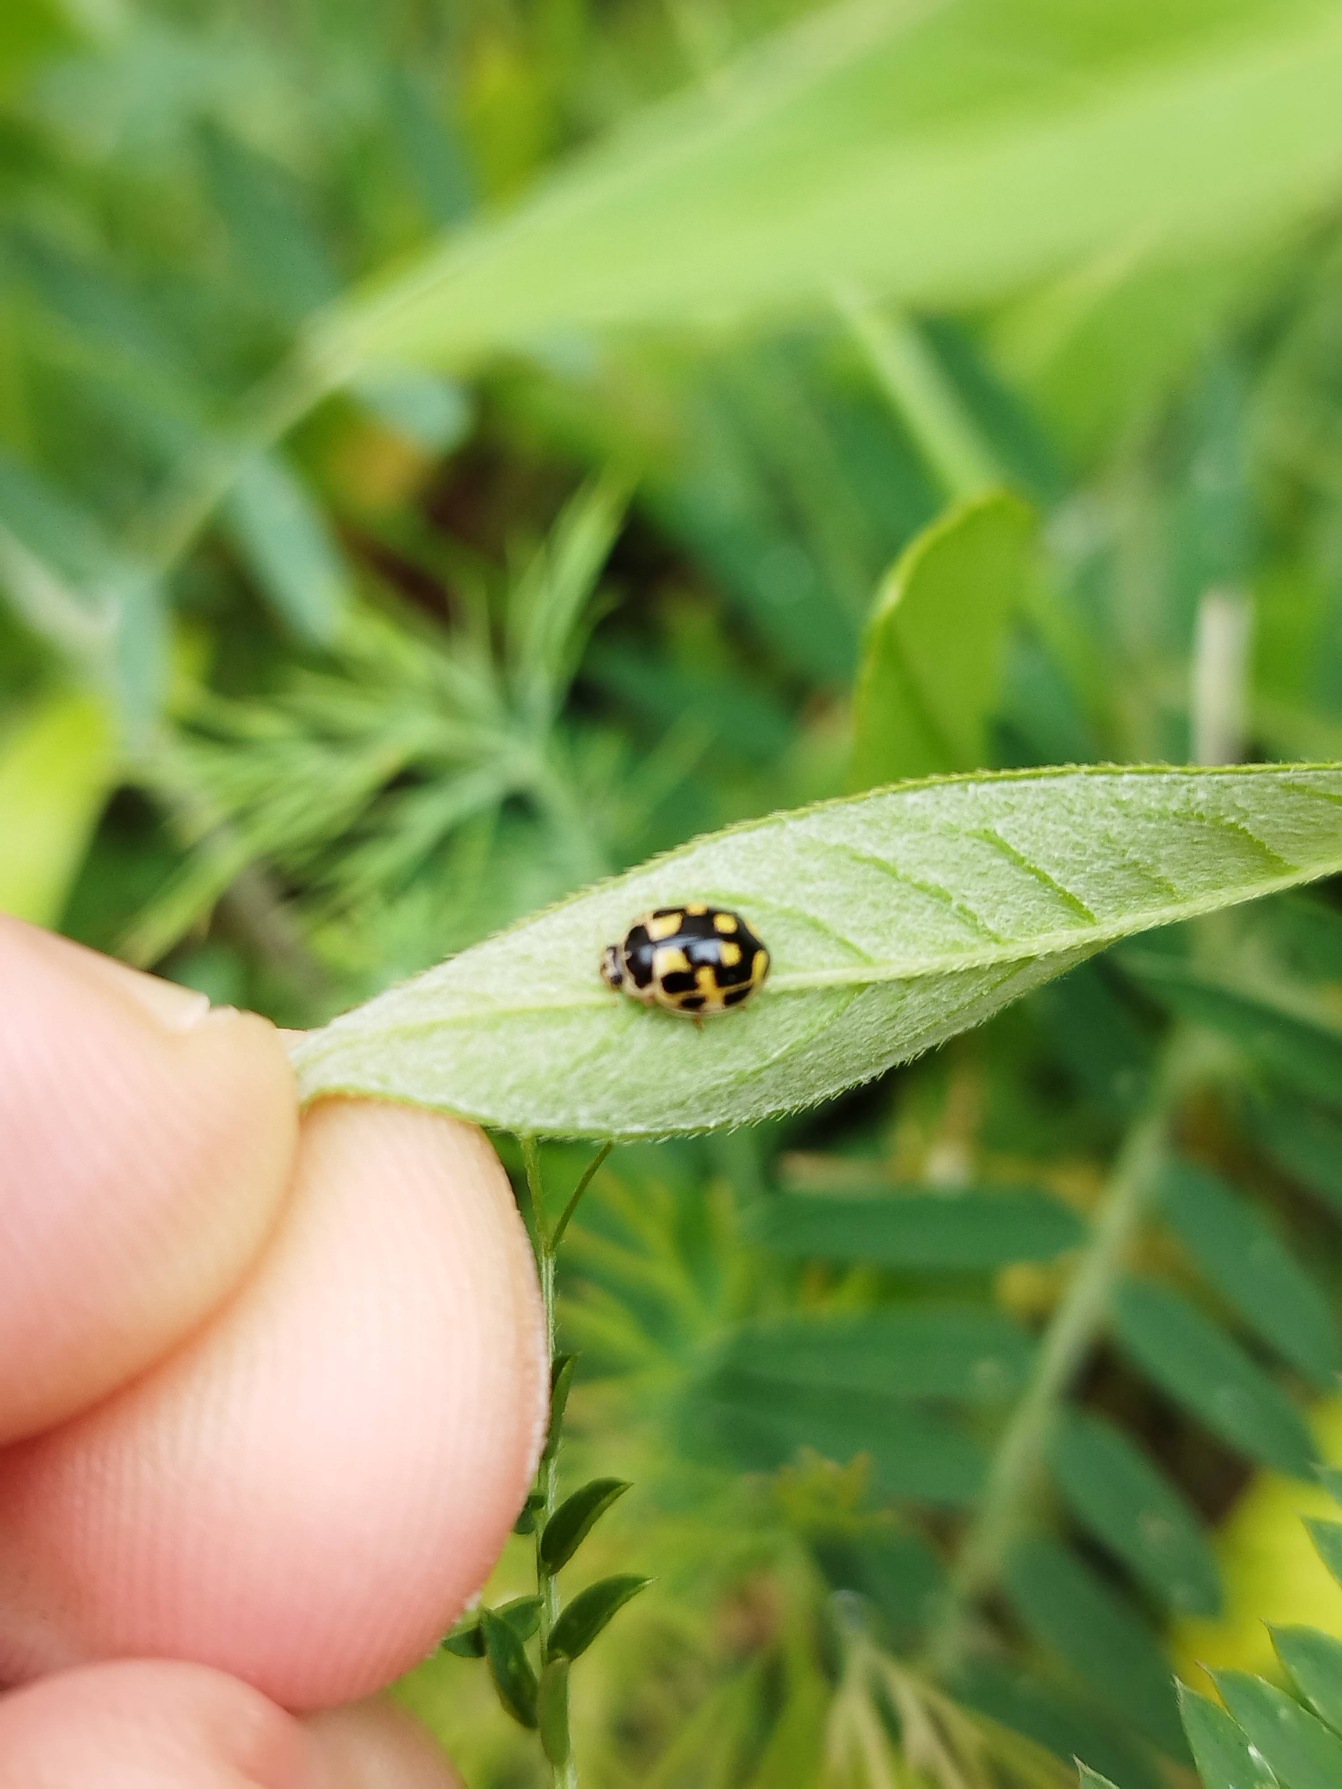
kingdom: Animalia
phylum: Arthropoda
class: Insecta
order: Coleoptera
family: Coccinellidae
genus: Propylaea
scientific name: Propylaea quatuordecimpunctata
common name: Skakbræt
